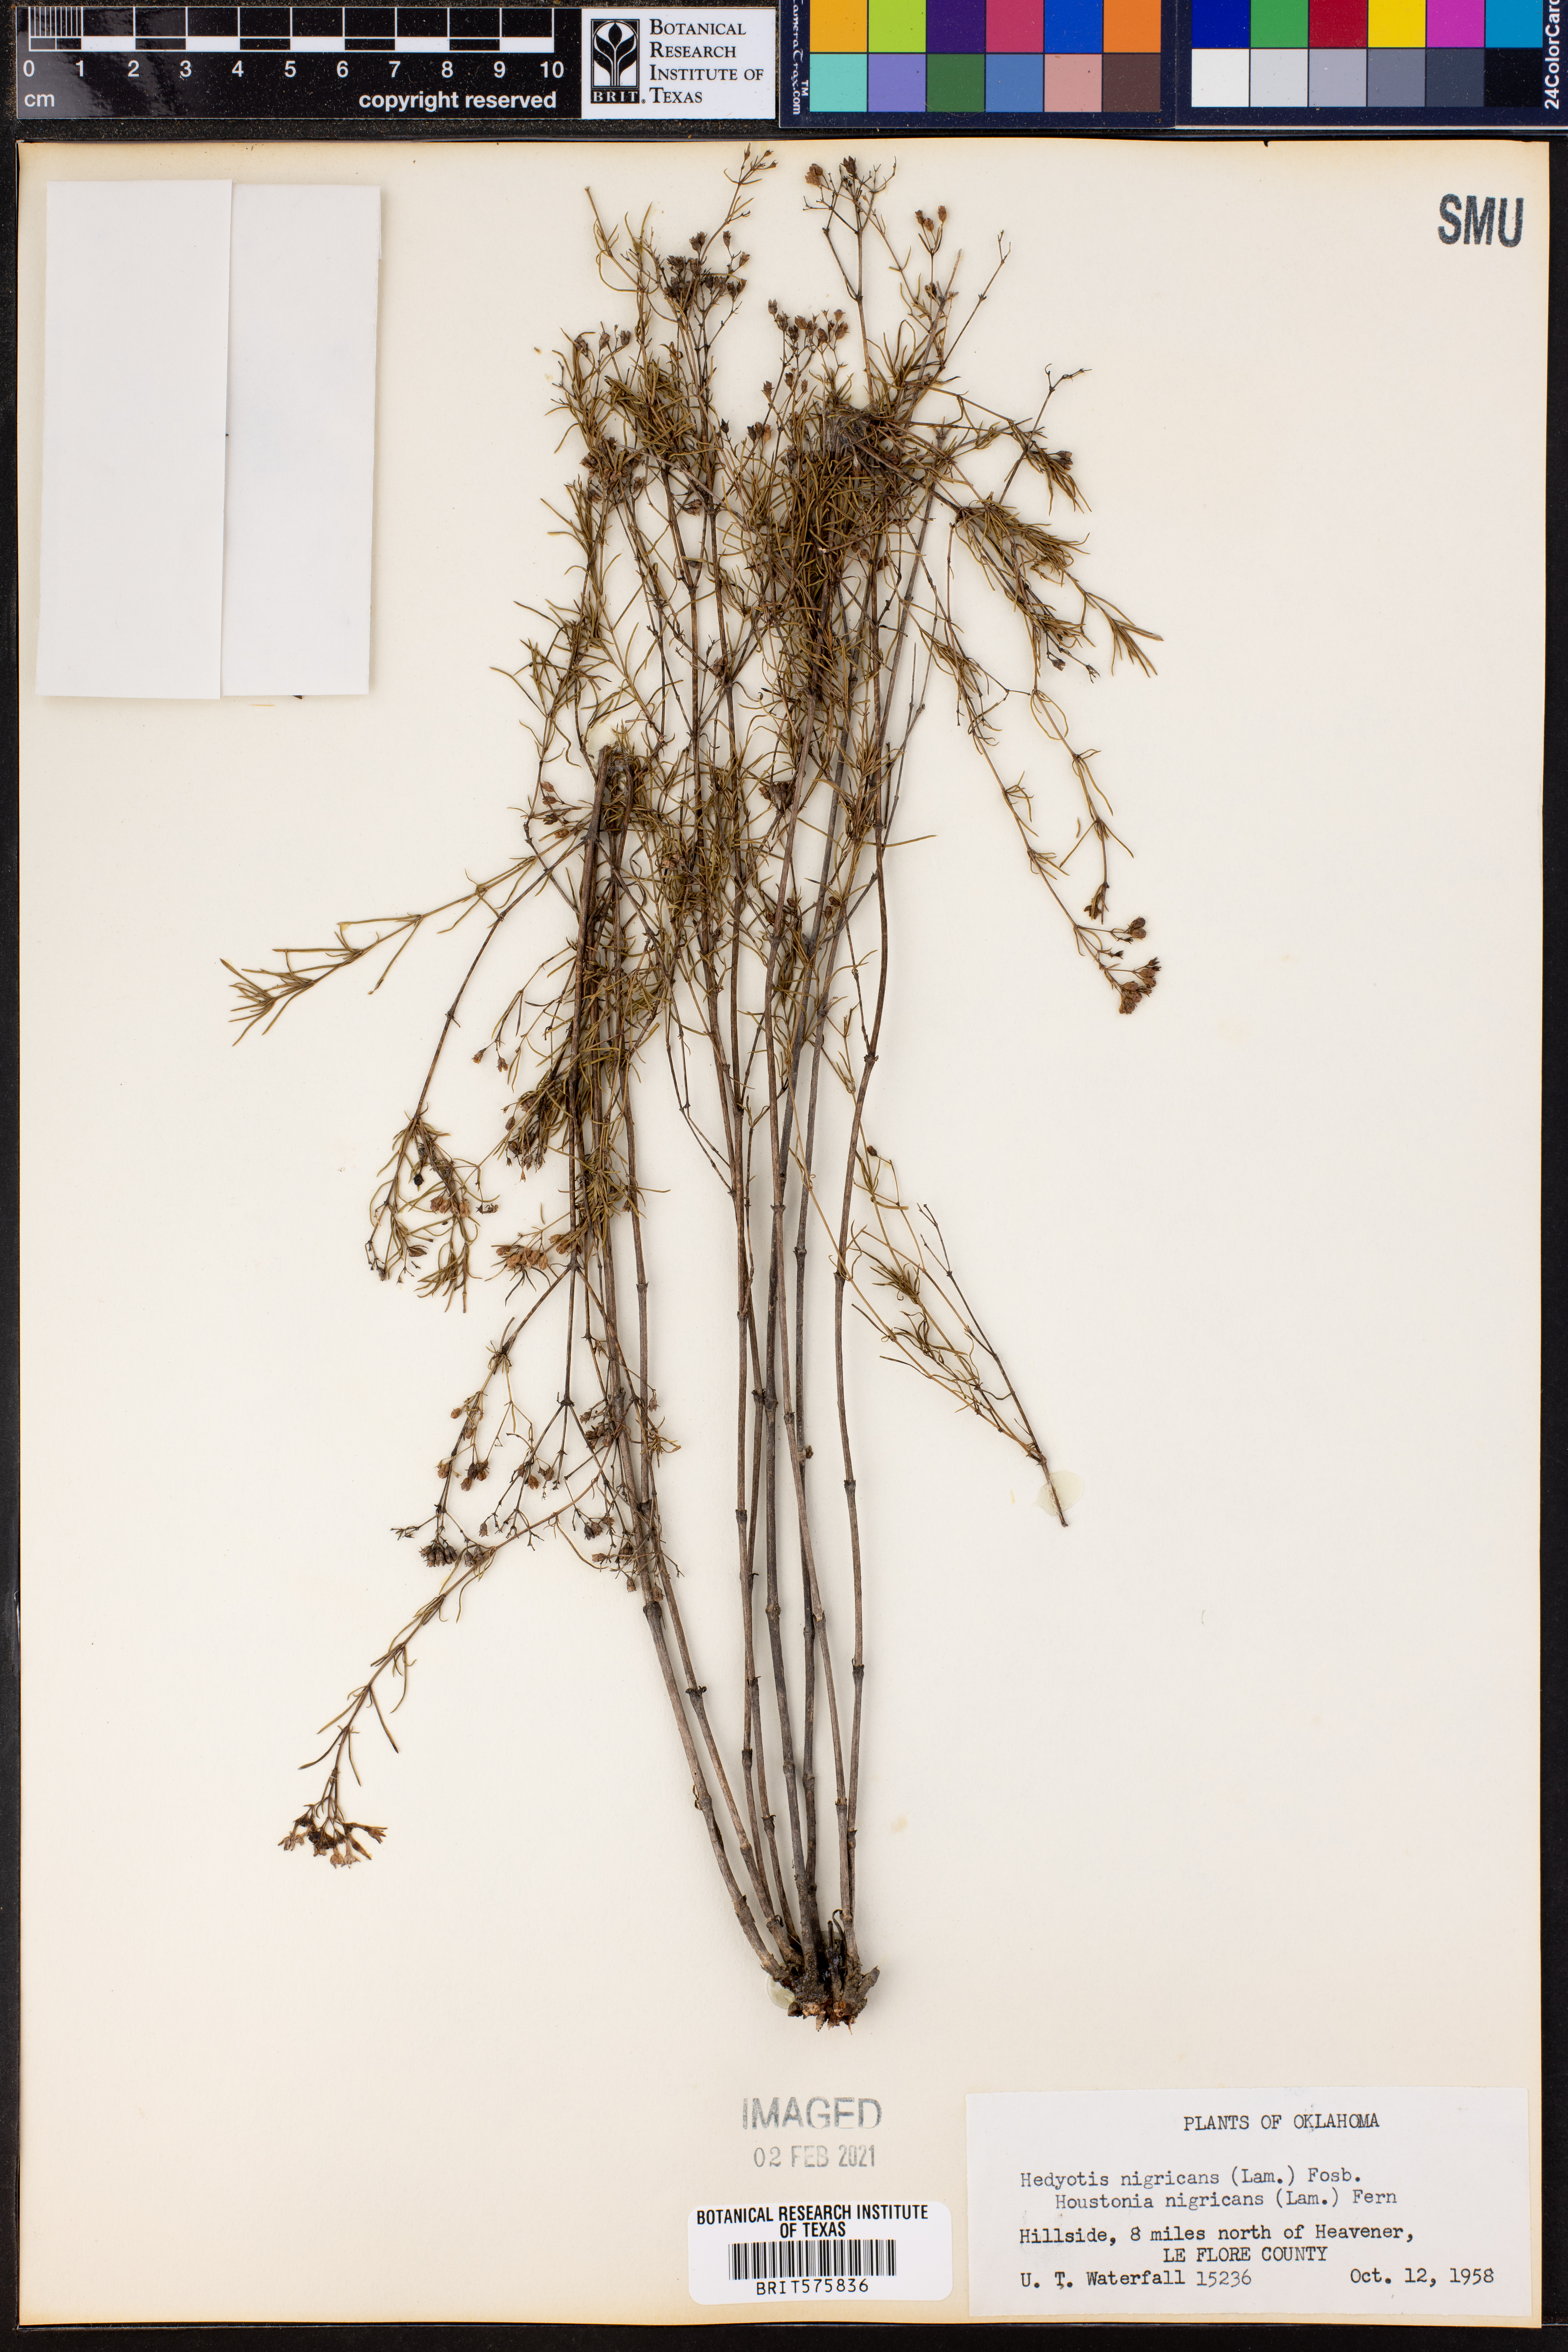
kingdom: Plantae
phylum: Tracheophyta
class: Magnoliopsida
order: Gentianales
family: Rubiaceae
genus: Stenaria
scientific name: Stenaria nigricans
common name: Diamondflowers
